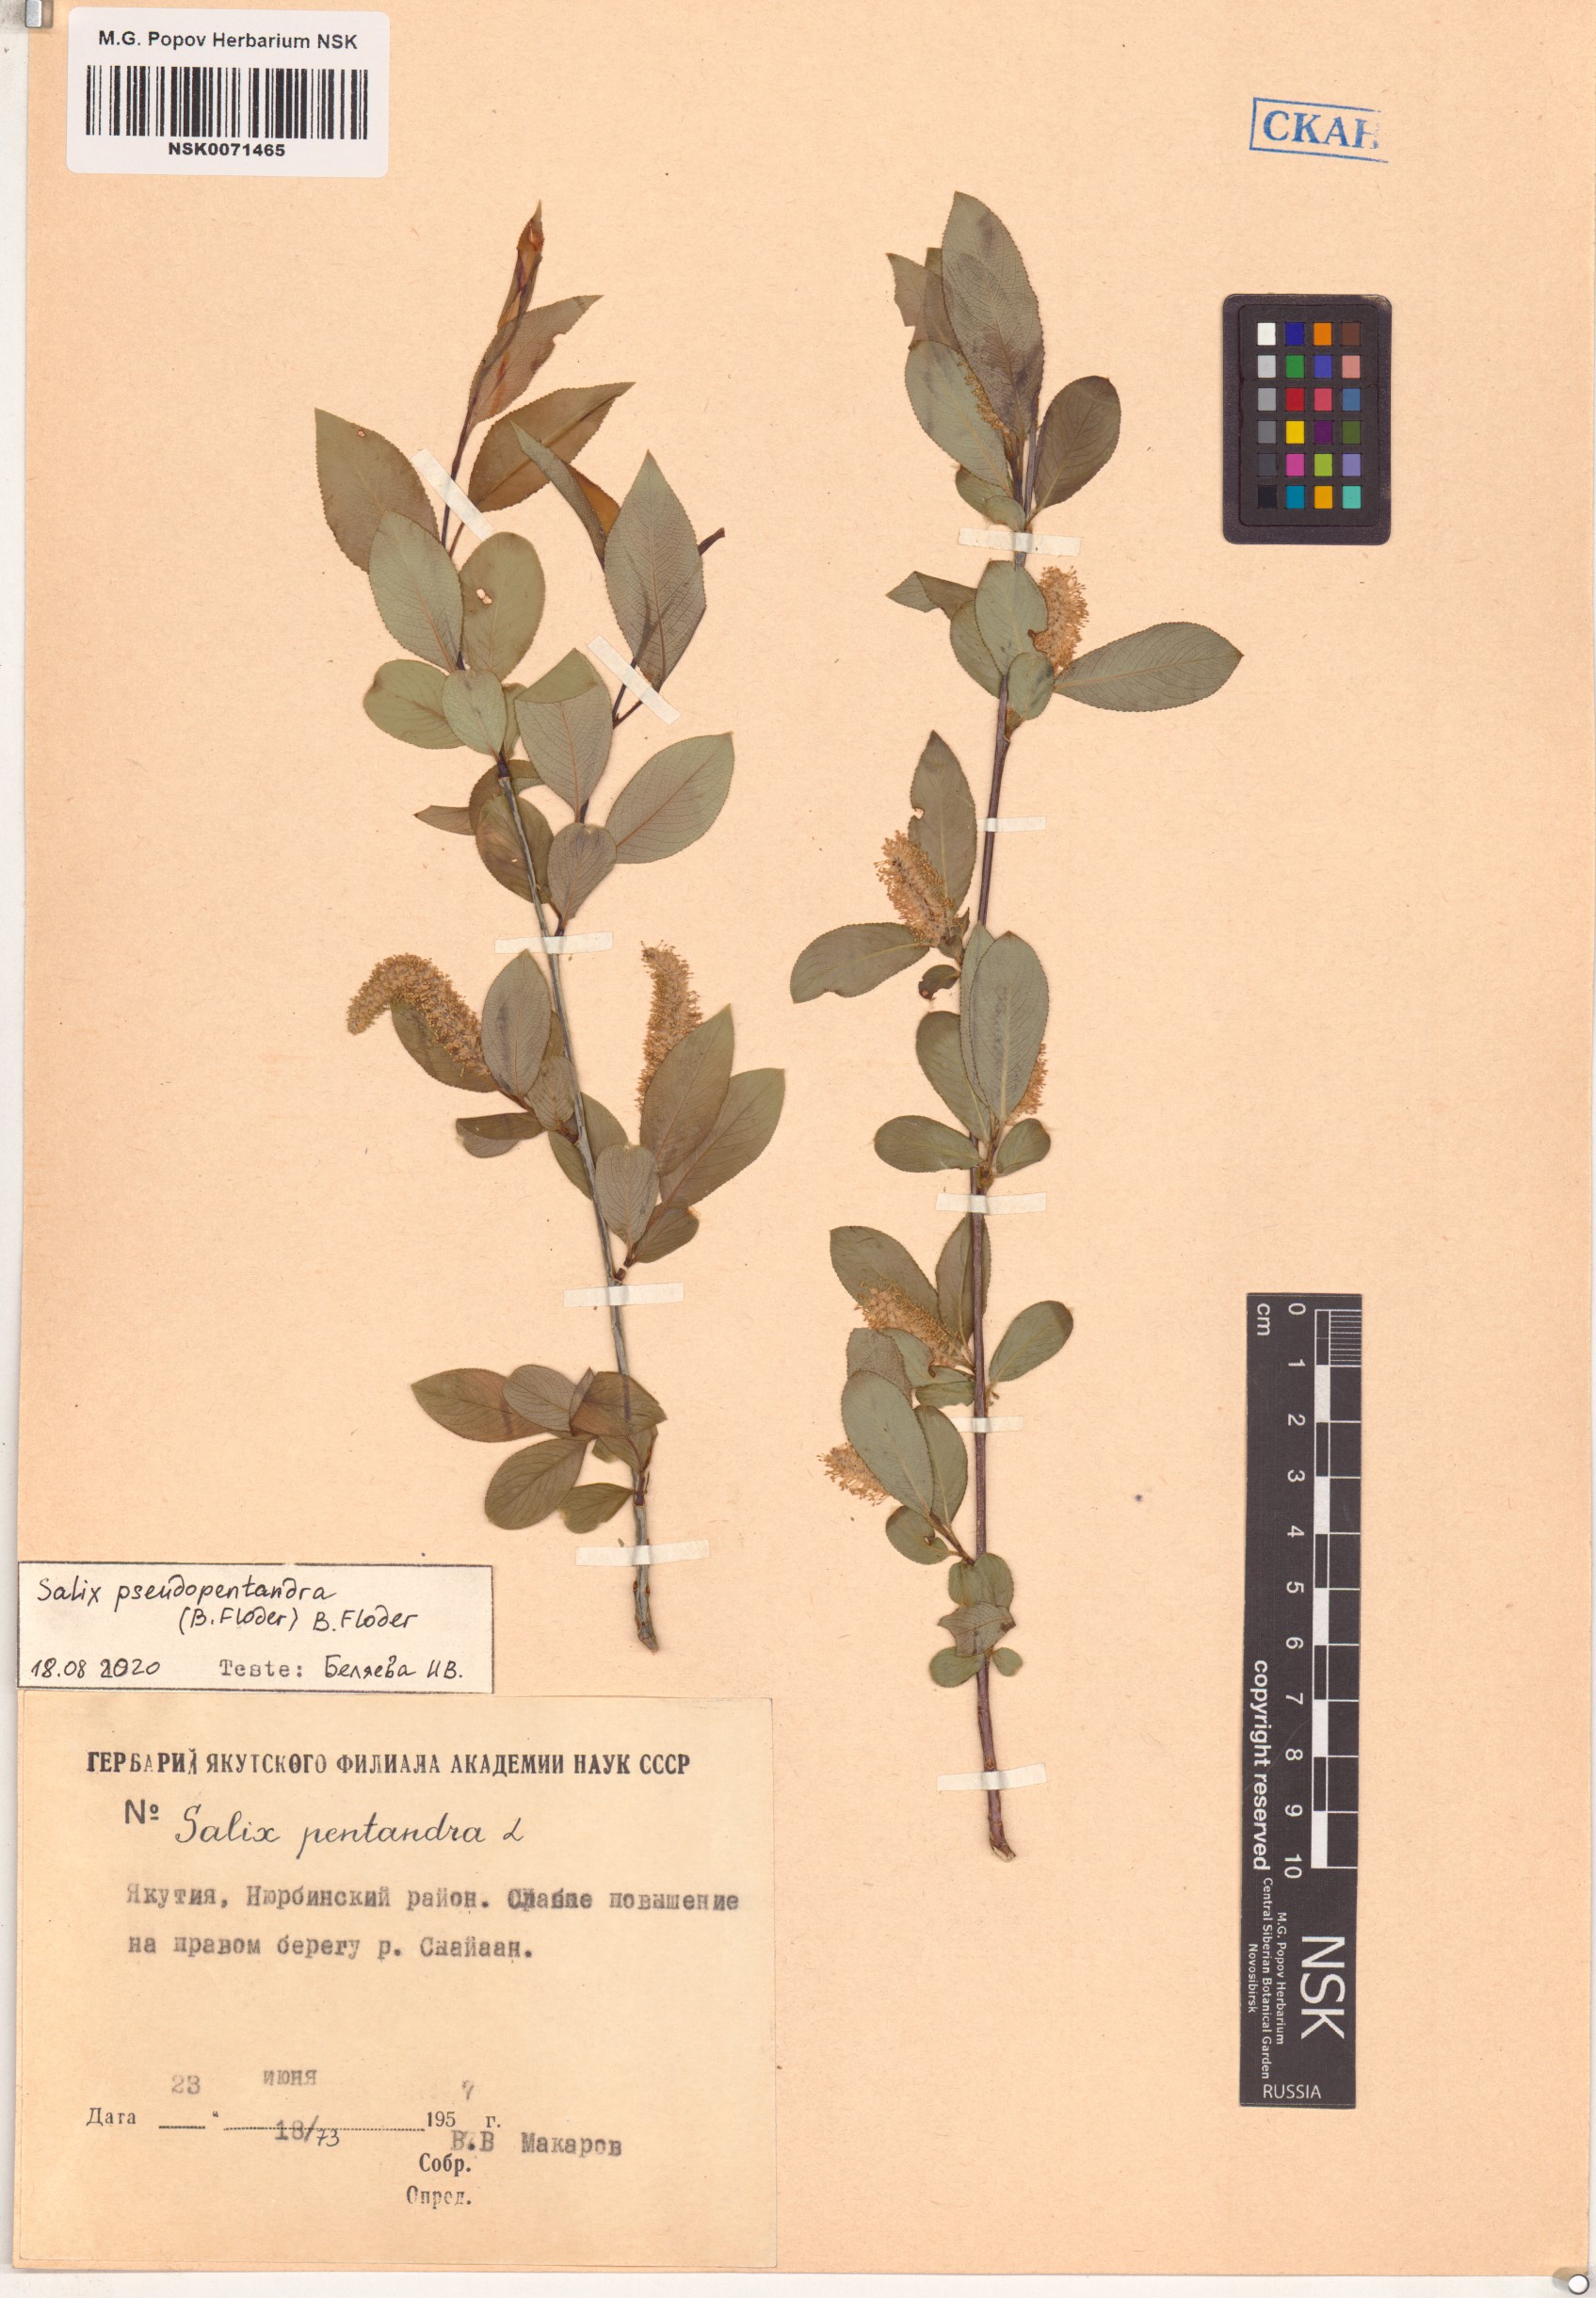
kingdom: Plantae
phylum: Tracheophyta
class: Magnoliopsida
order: Malpighiales
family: Salicaceae
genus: Salix
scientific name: Salix pseudopentandra
